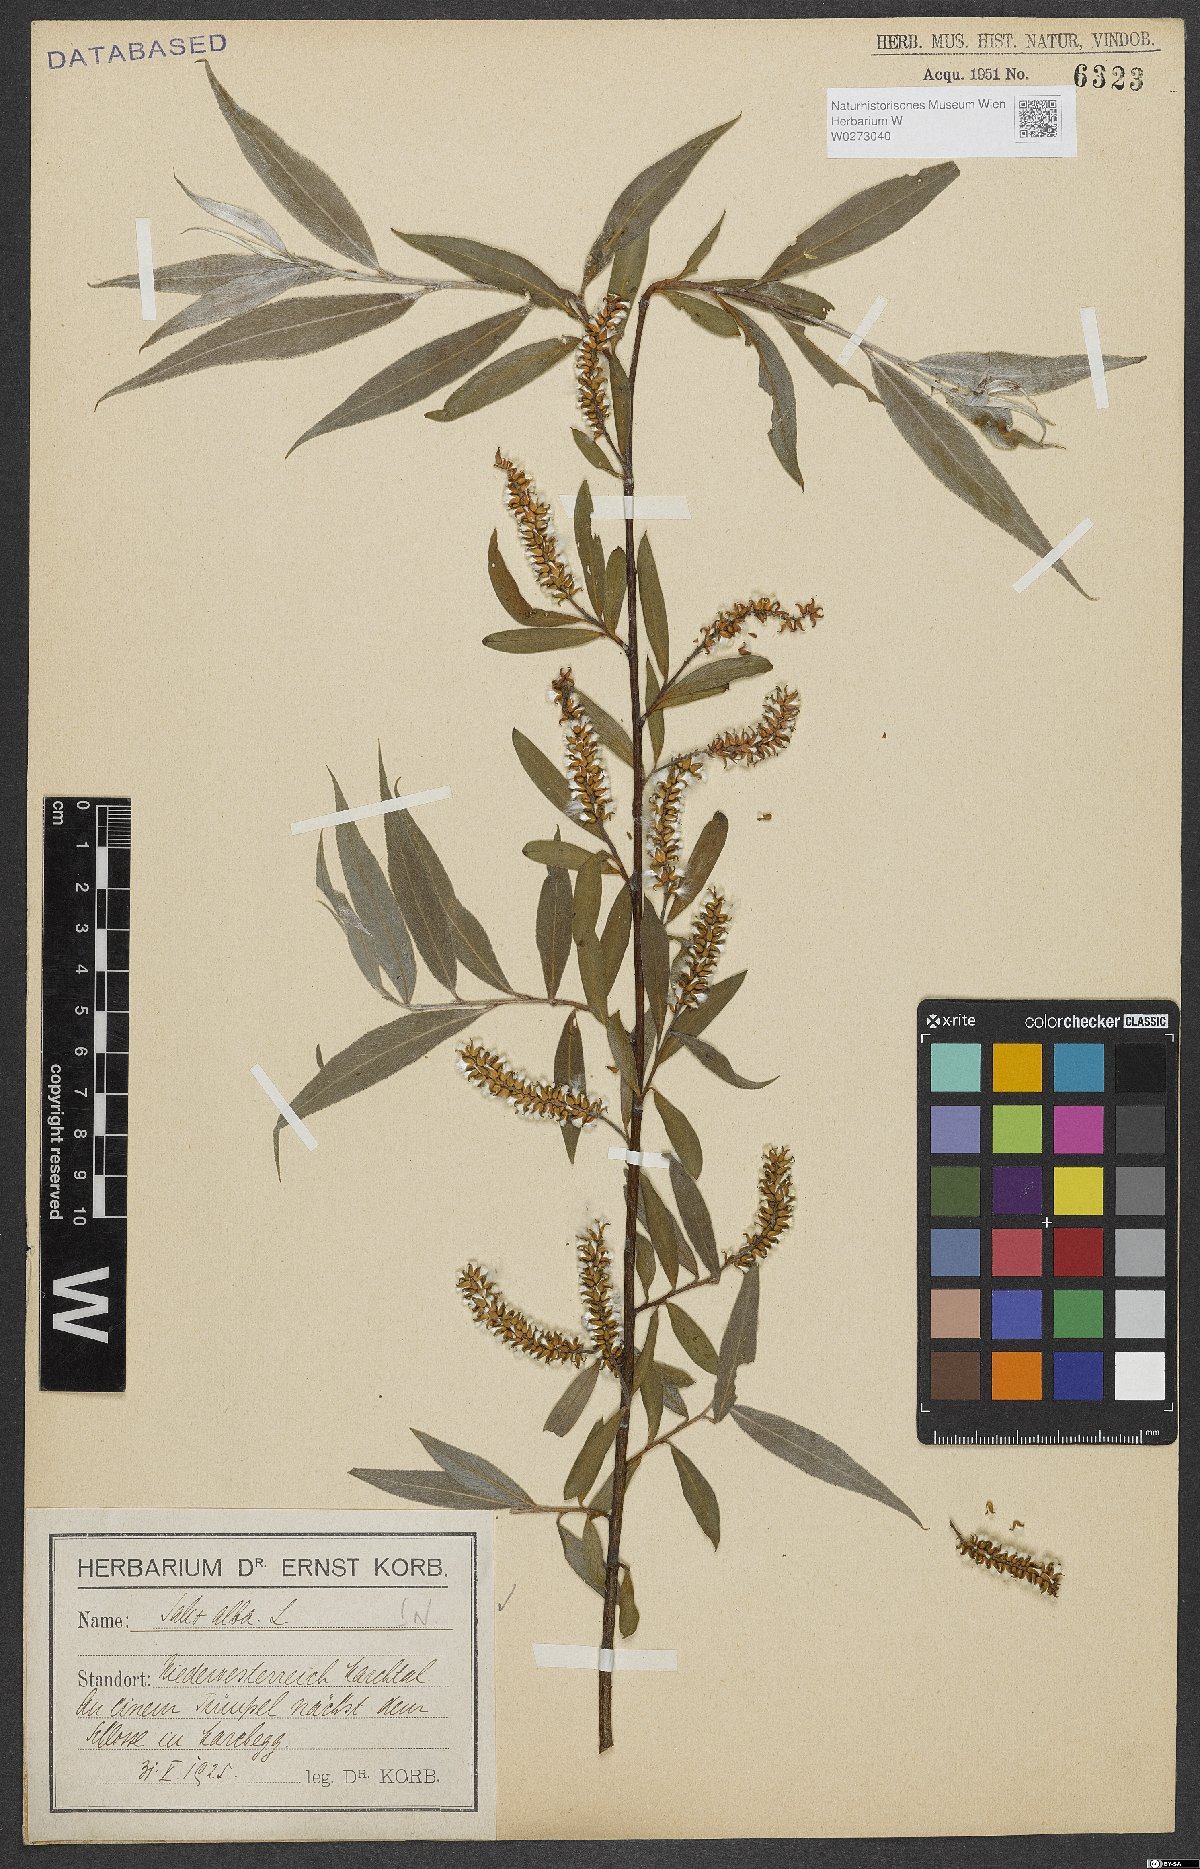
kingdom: Plantae
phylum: Tracheophyta
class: Magnoliopsida
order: Malpighiales
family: Salicaceae
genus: Salix
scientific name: Salix alba
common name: White willow
